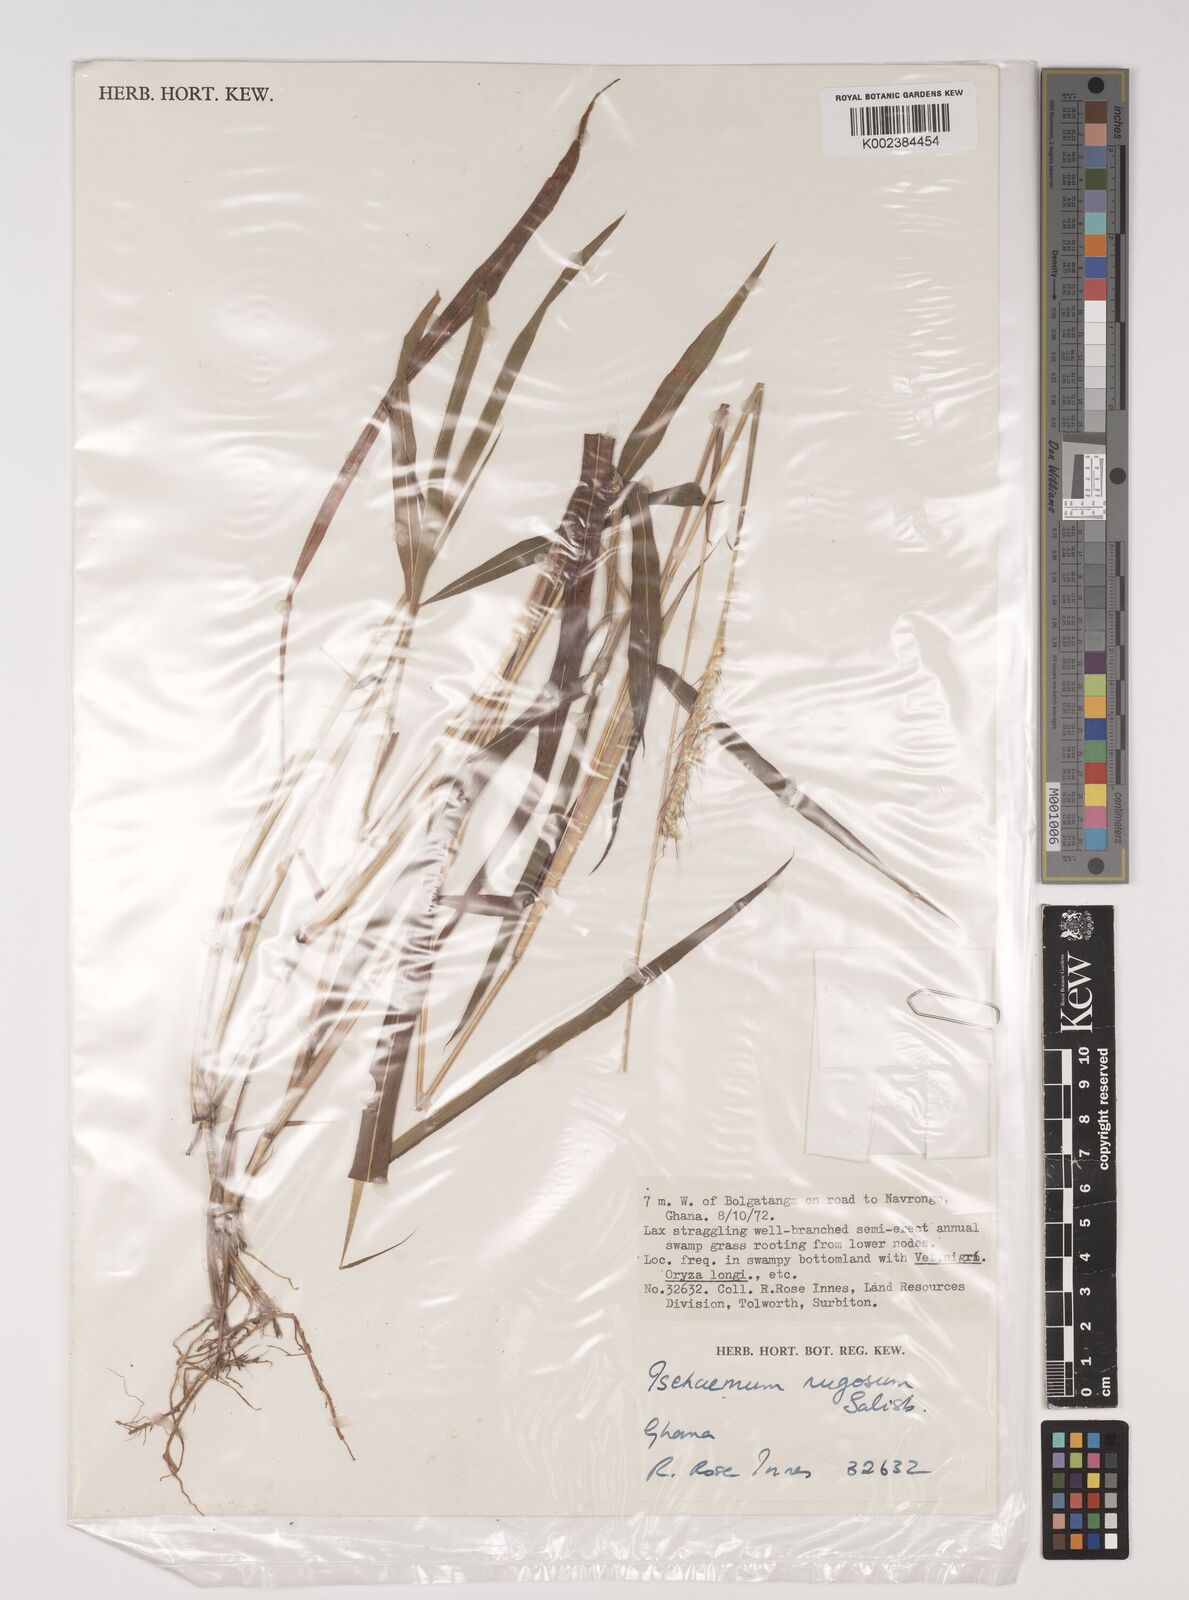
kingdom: Plantae
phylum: Tracheophyta
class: Liliopsida
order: Poales
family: Poaceae
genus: Ischaemum
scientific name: Ischaemum rugosum
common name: Saramatta grass
